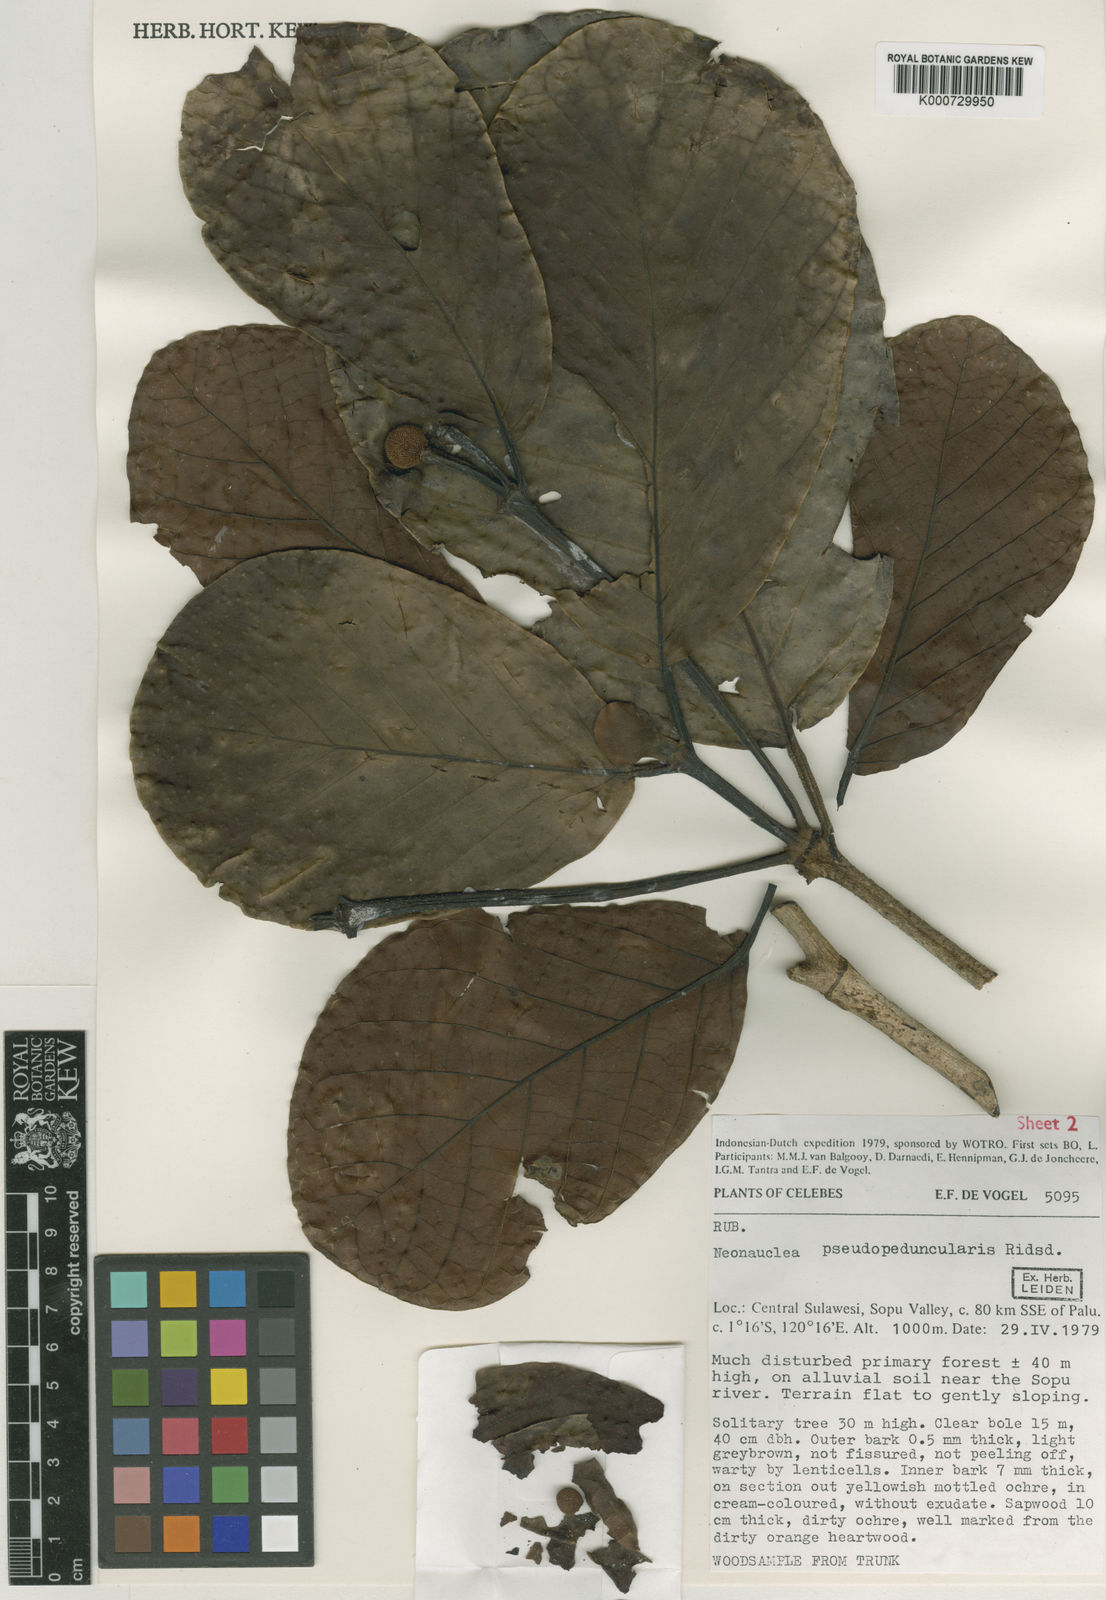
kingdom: Plantae
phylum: Tracheophyta
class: Magnoliopsida
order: Gentianales
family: Rubiaceae
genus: Neonauclea
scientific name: Neonauclea pseudopeduncularis
